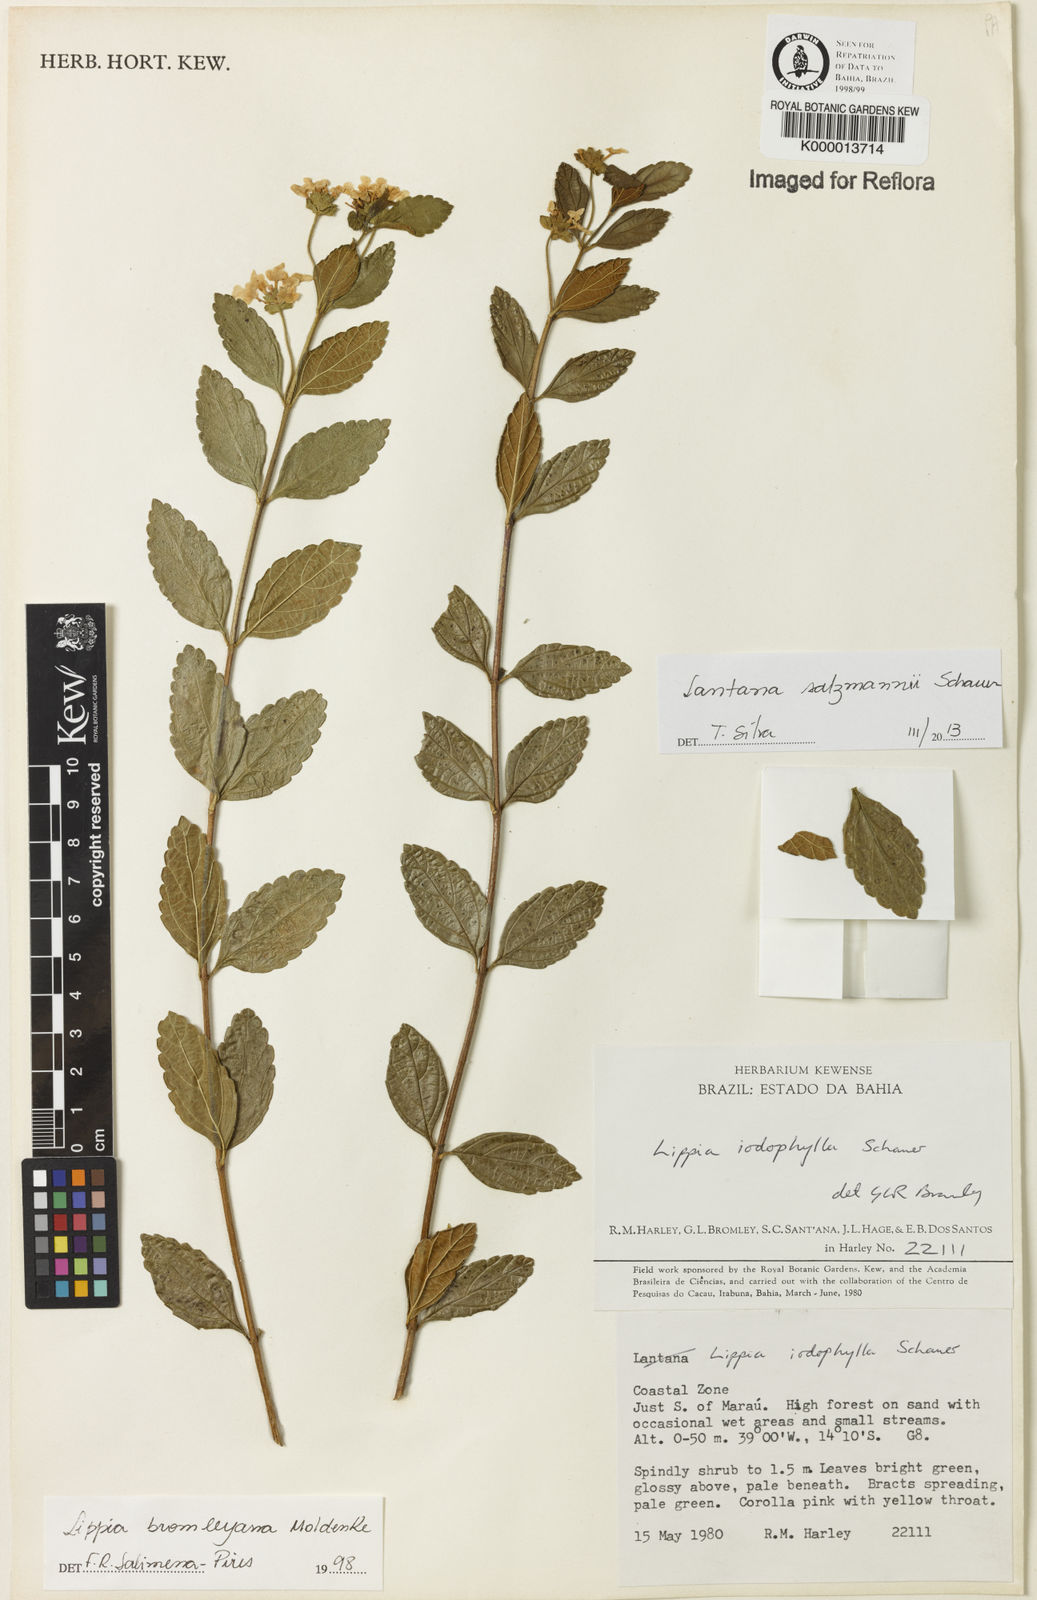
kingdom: Plantae
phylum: Tracheophyta
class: Magnoliopsida
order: Lamiales
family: Verbenaceae
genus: Lippia
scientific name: Lippia bromleyana
